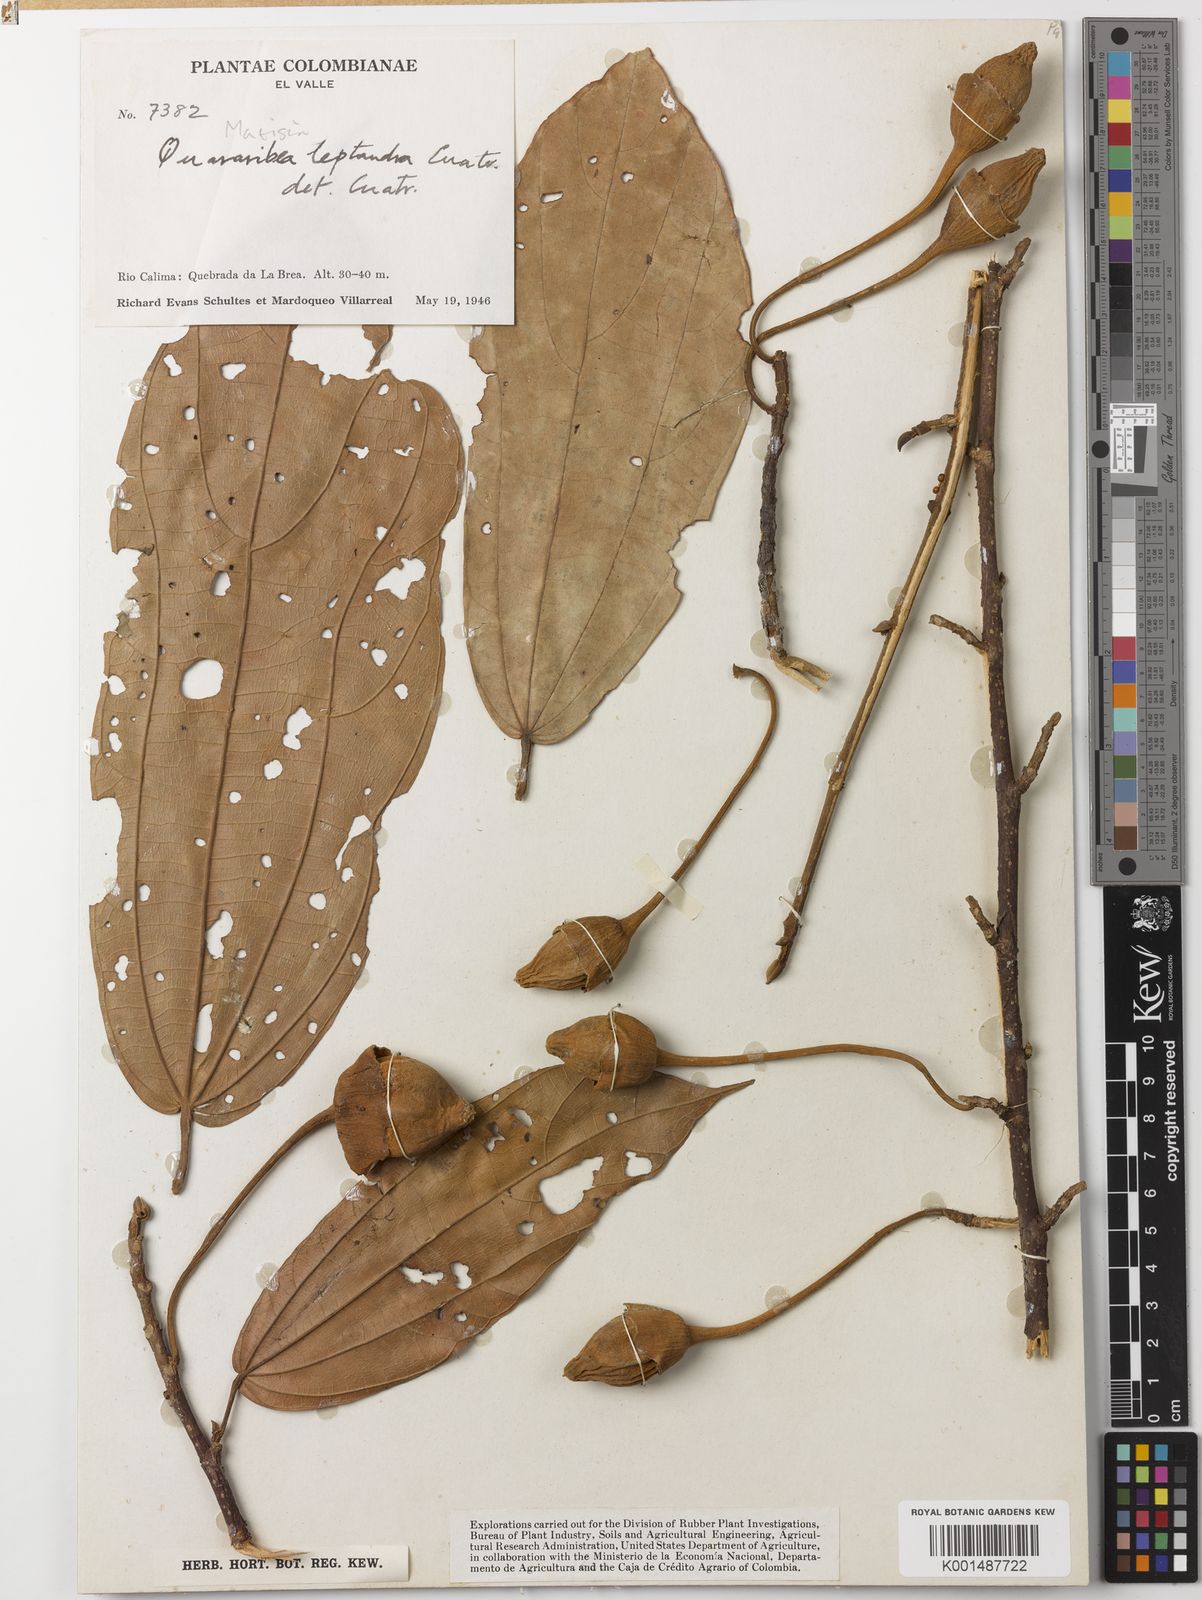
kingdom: Plantae
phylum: Tracheophyta
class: Magnoliopsida
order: Malvales
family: Malvaceae
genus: Matisia
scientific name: Matisia leptandra
